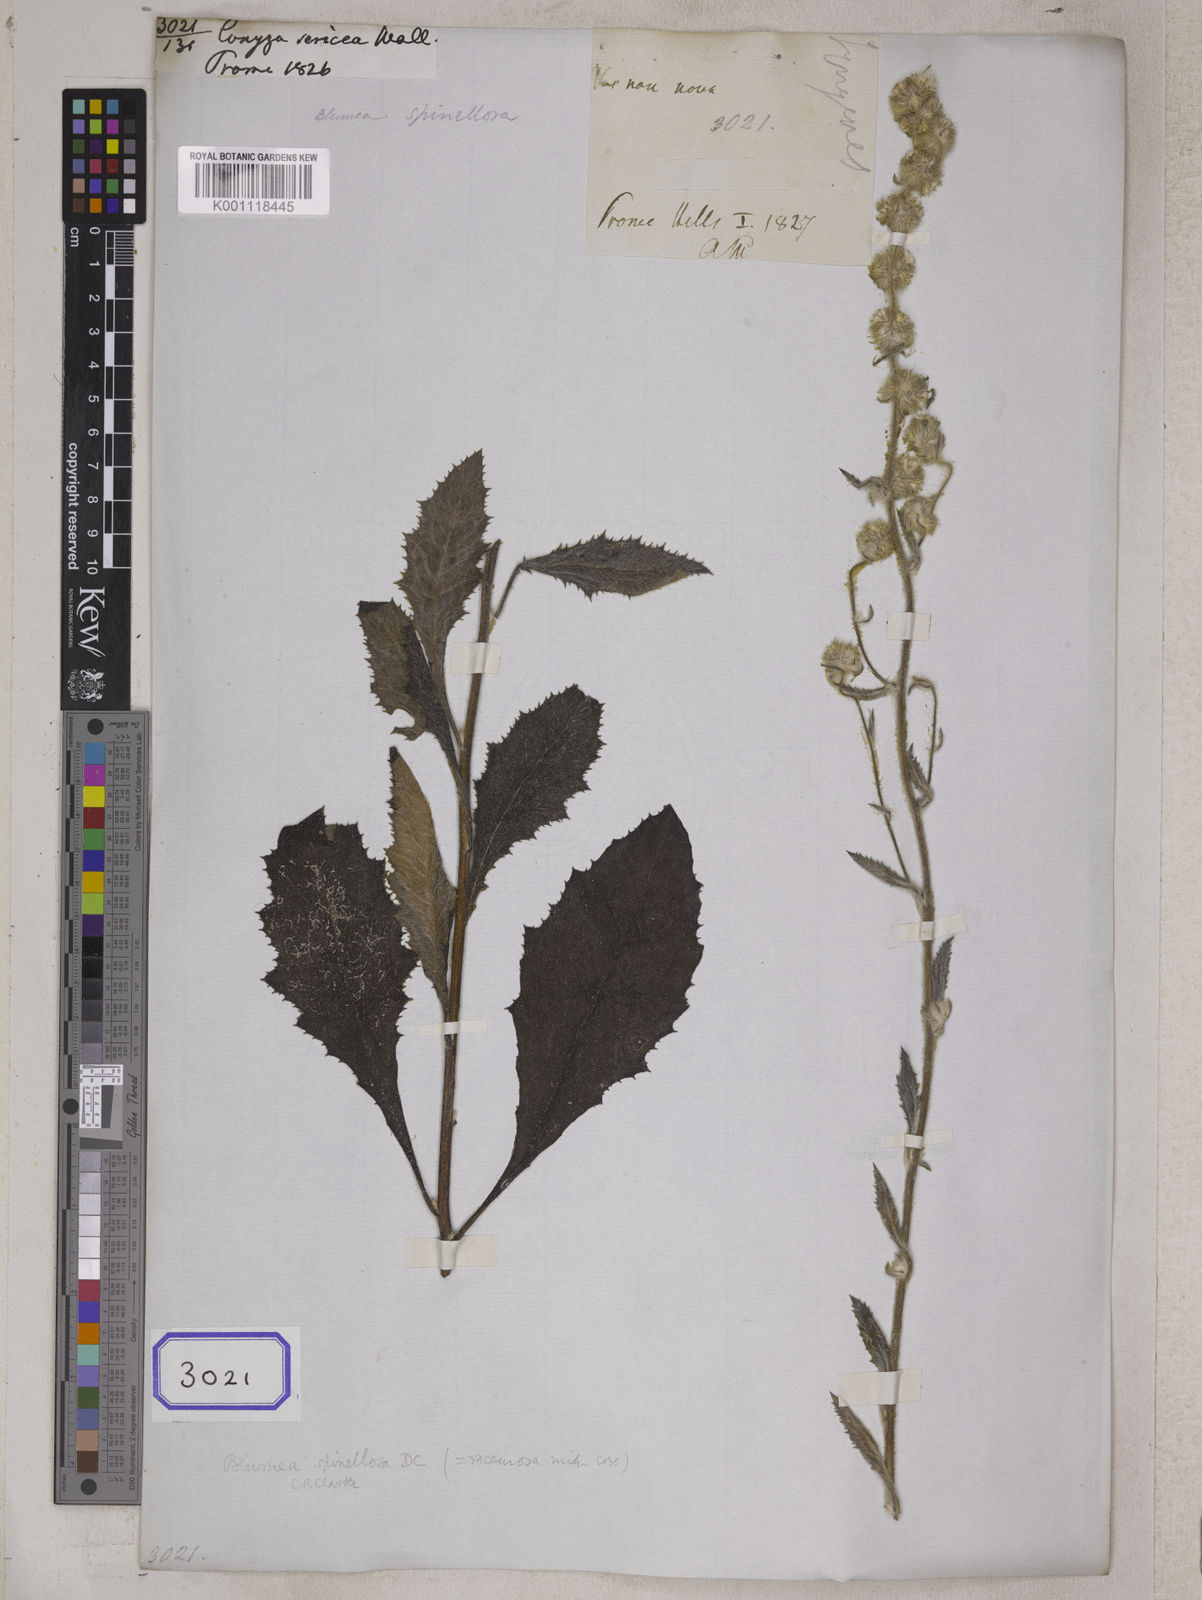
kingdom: Plantae
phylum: Tracheophyta
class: Magnoliopsida
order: Asterales
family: Asteraceae
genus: Blumea
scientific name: Blumea fistulosa
